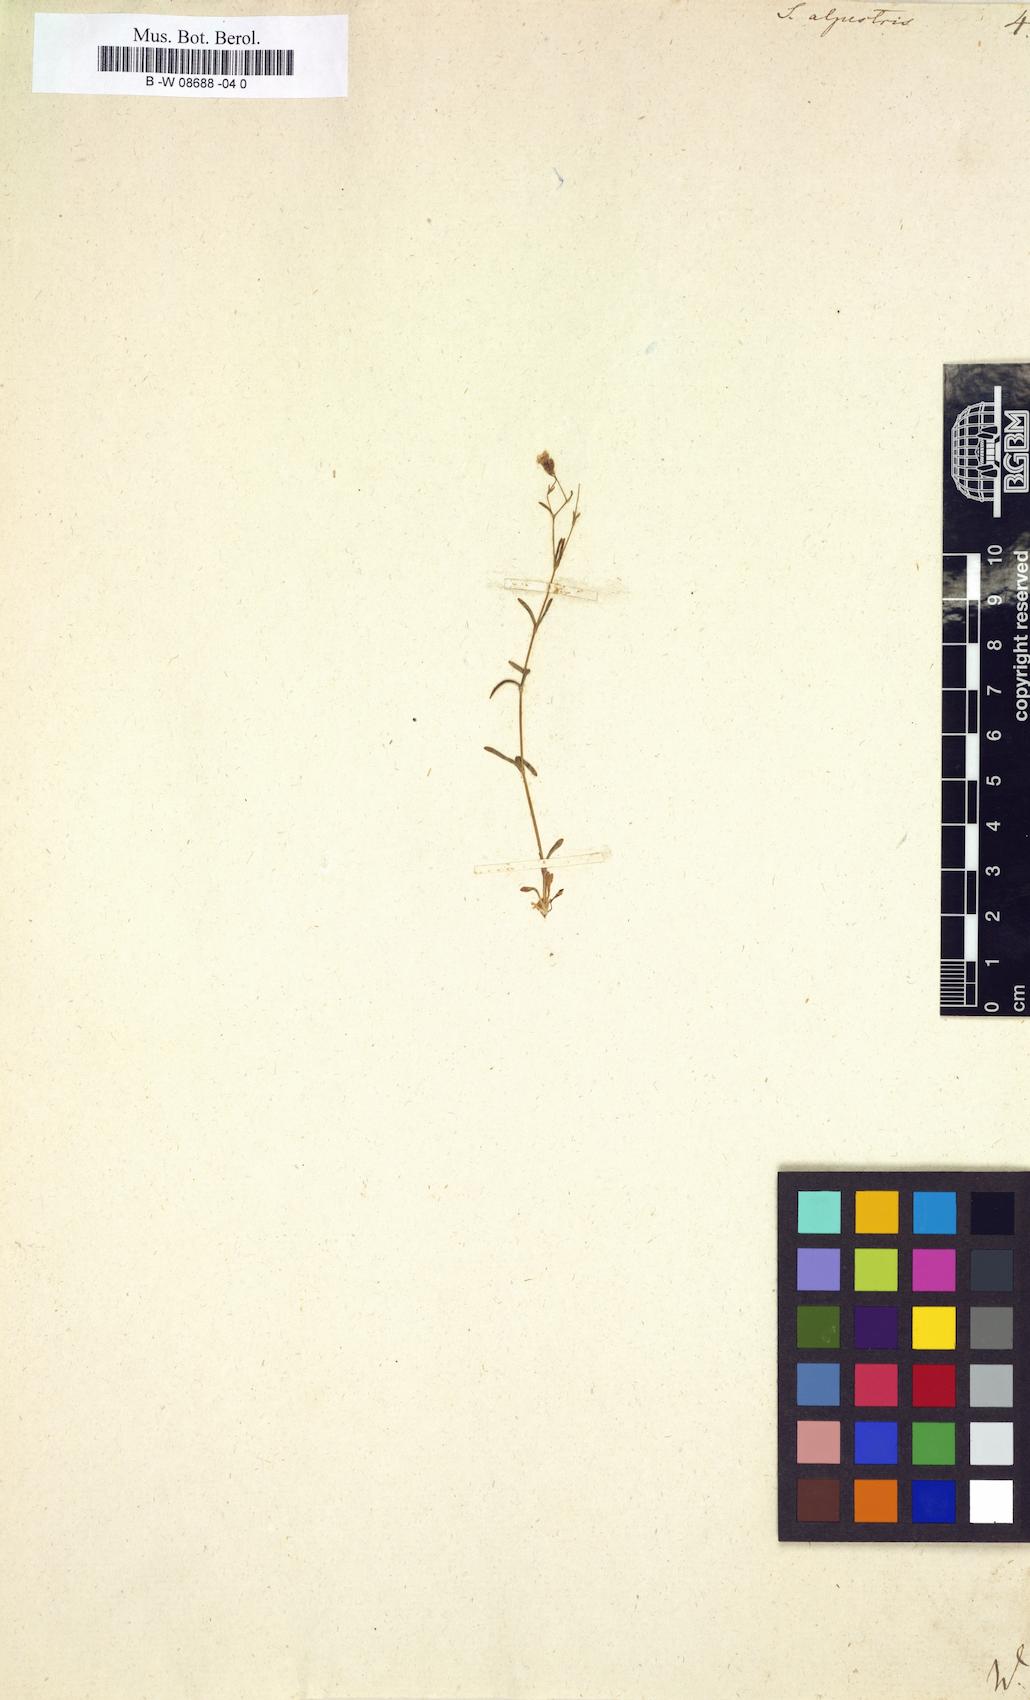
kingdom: Plantae
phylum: Tracheophyta
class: Magnoliopsida
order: Caryophyllales
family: Caryophyllaceae
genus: Heliosperma
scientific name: Heliosperma alpestre
